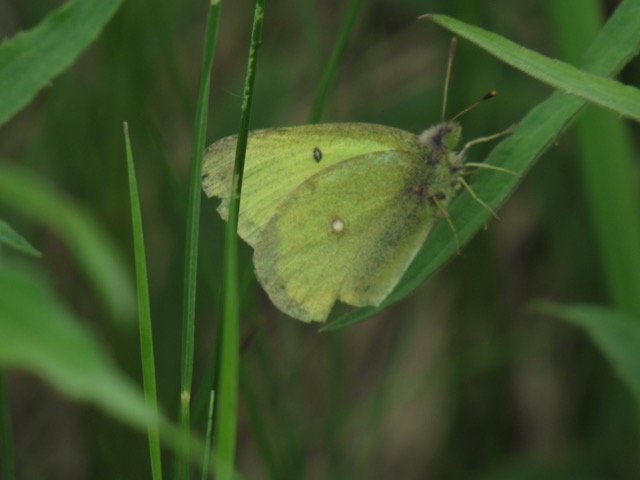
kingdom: Animalia
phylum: Arthropoda
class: Insecta
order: Lepidoptera
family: Pieridae
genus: Colias
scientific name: Colias philodice
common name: Clouded Sulphur
